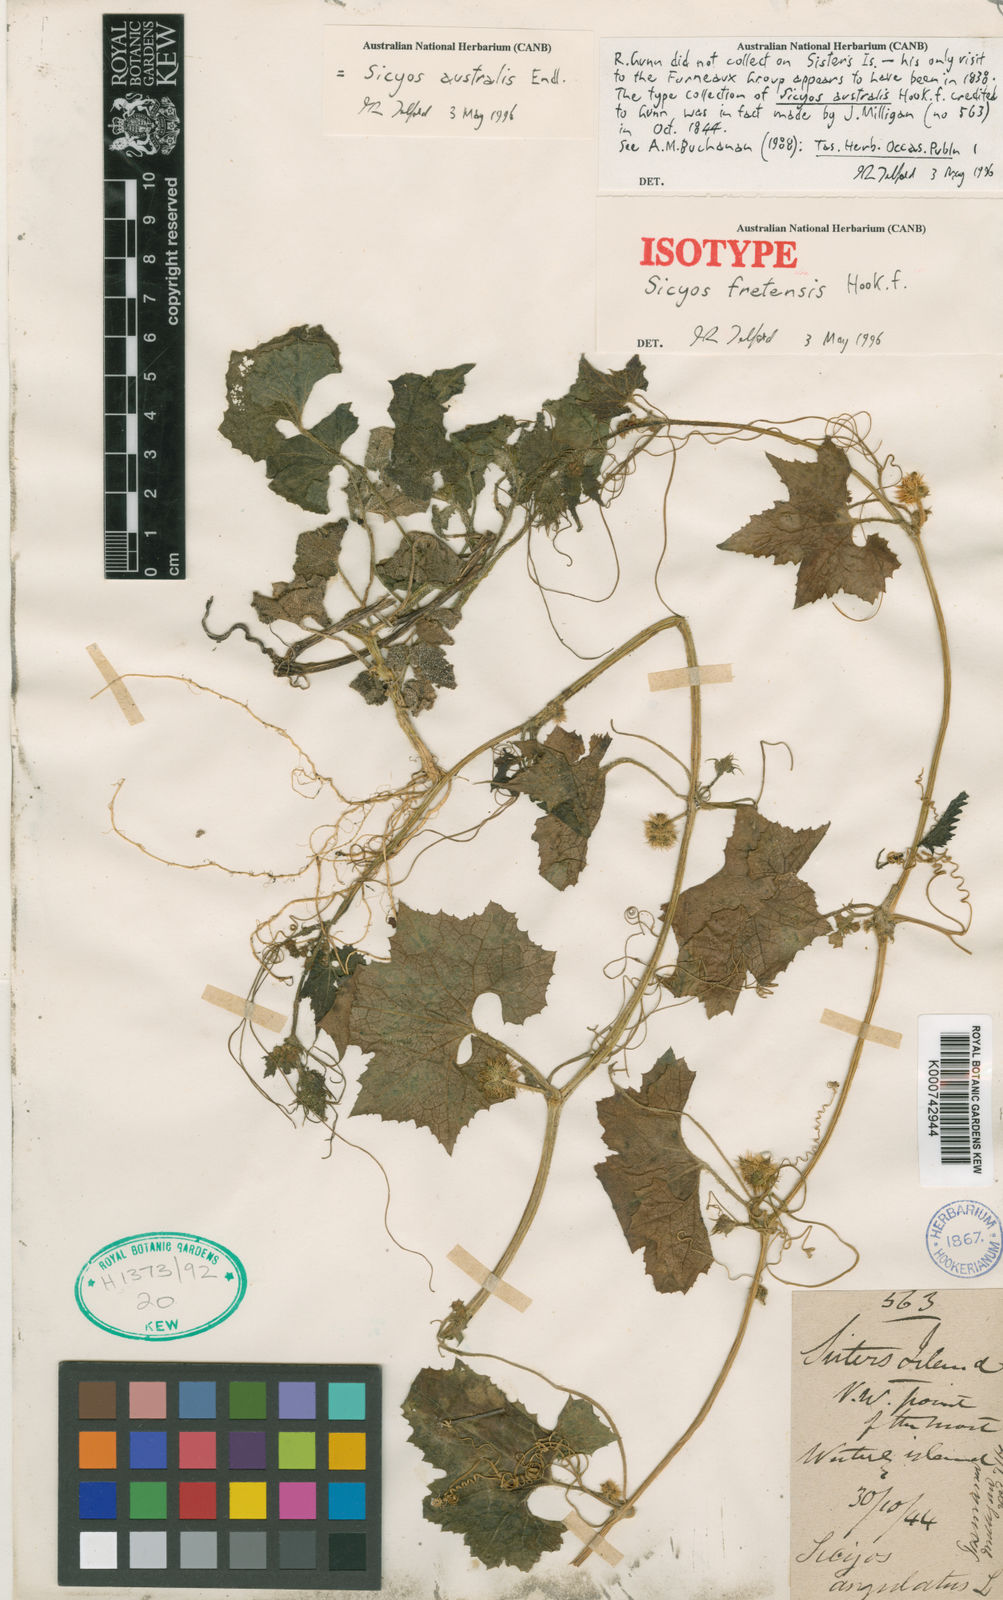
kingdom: Plantae
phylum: Tracheophyta
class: Magnoliopsida
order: Cucurbitales
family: Cucurbitaceae
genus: Sicyos
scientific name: Sicyos australis
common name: Angle-cucumber
